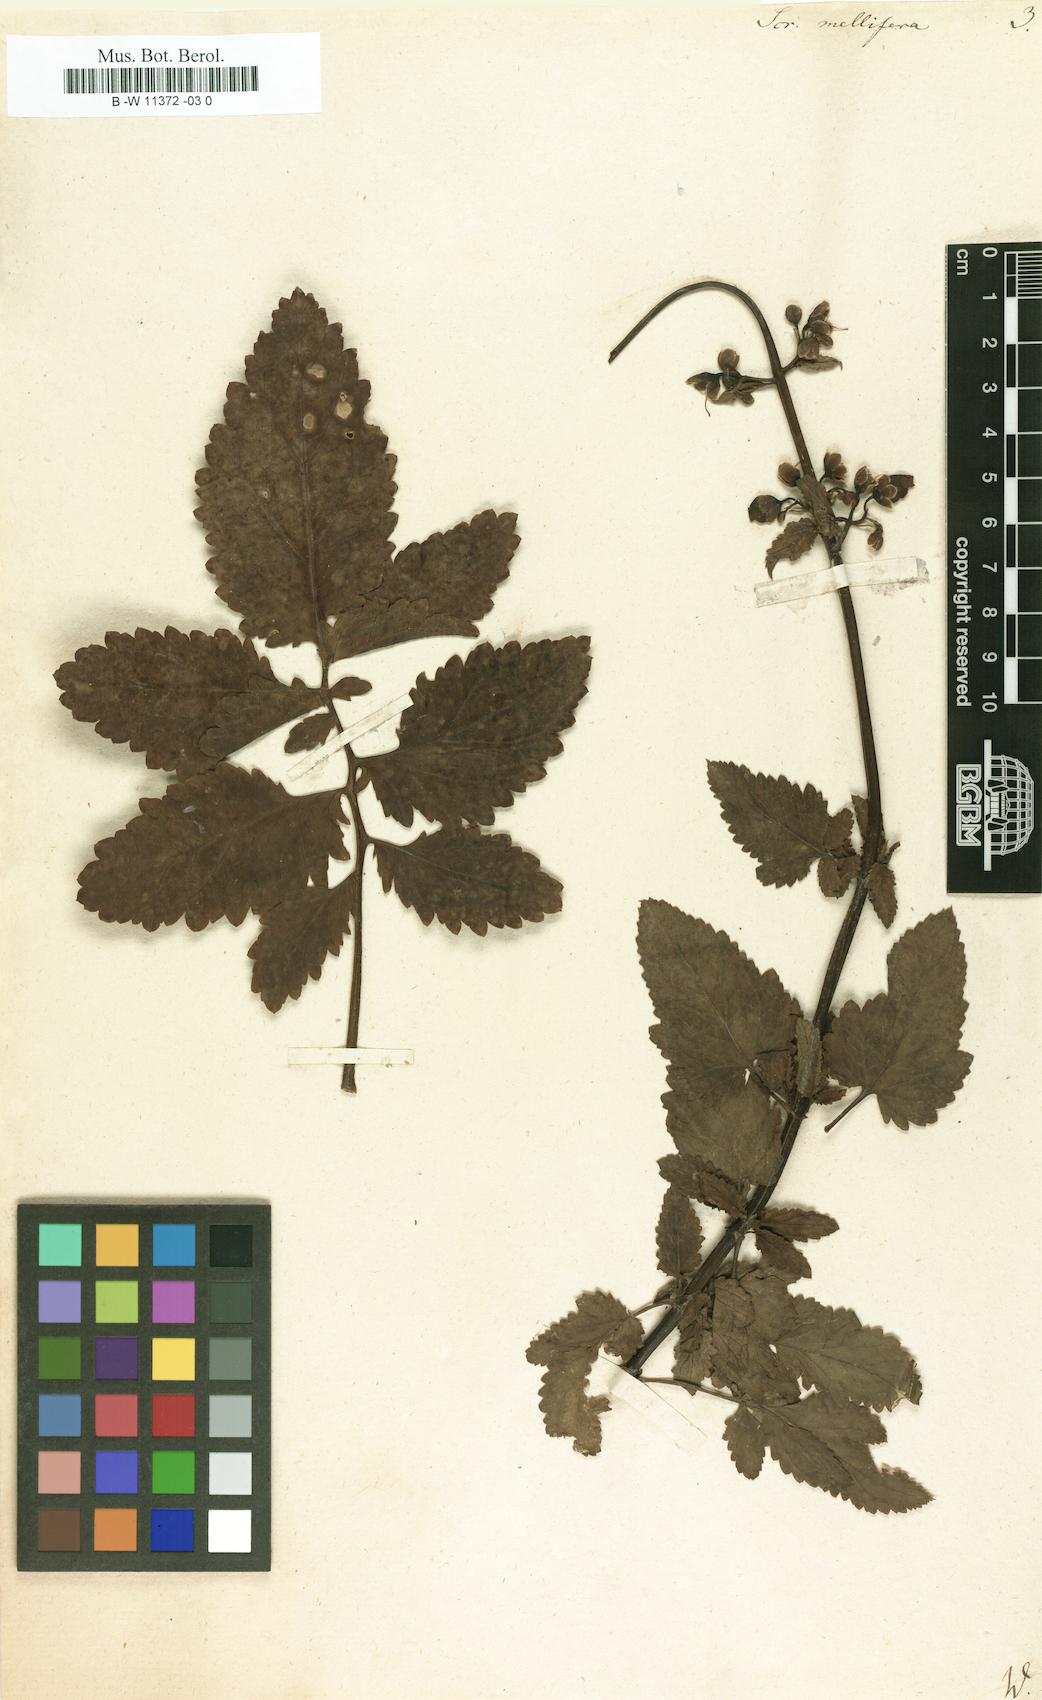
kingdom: Plantae
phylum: Tracheophyta
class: Magnoliopsida
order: Lamiales
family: Scrophulariaceae
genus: Scrophularia
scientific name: Scrophularia
